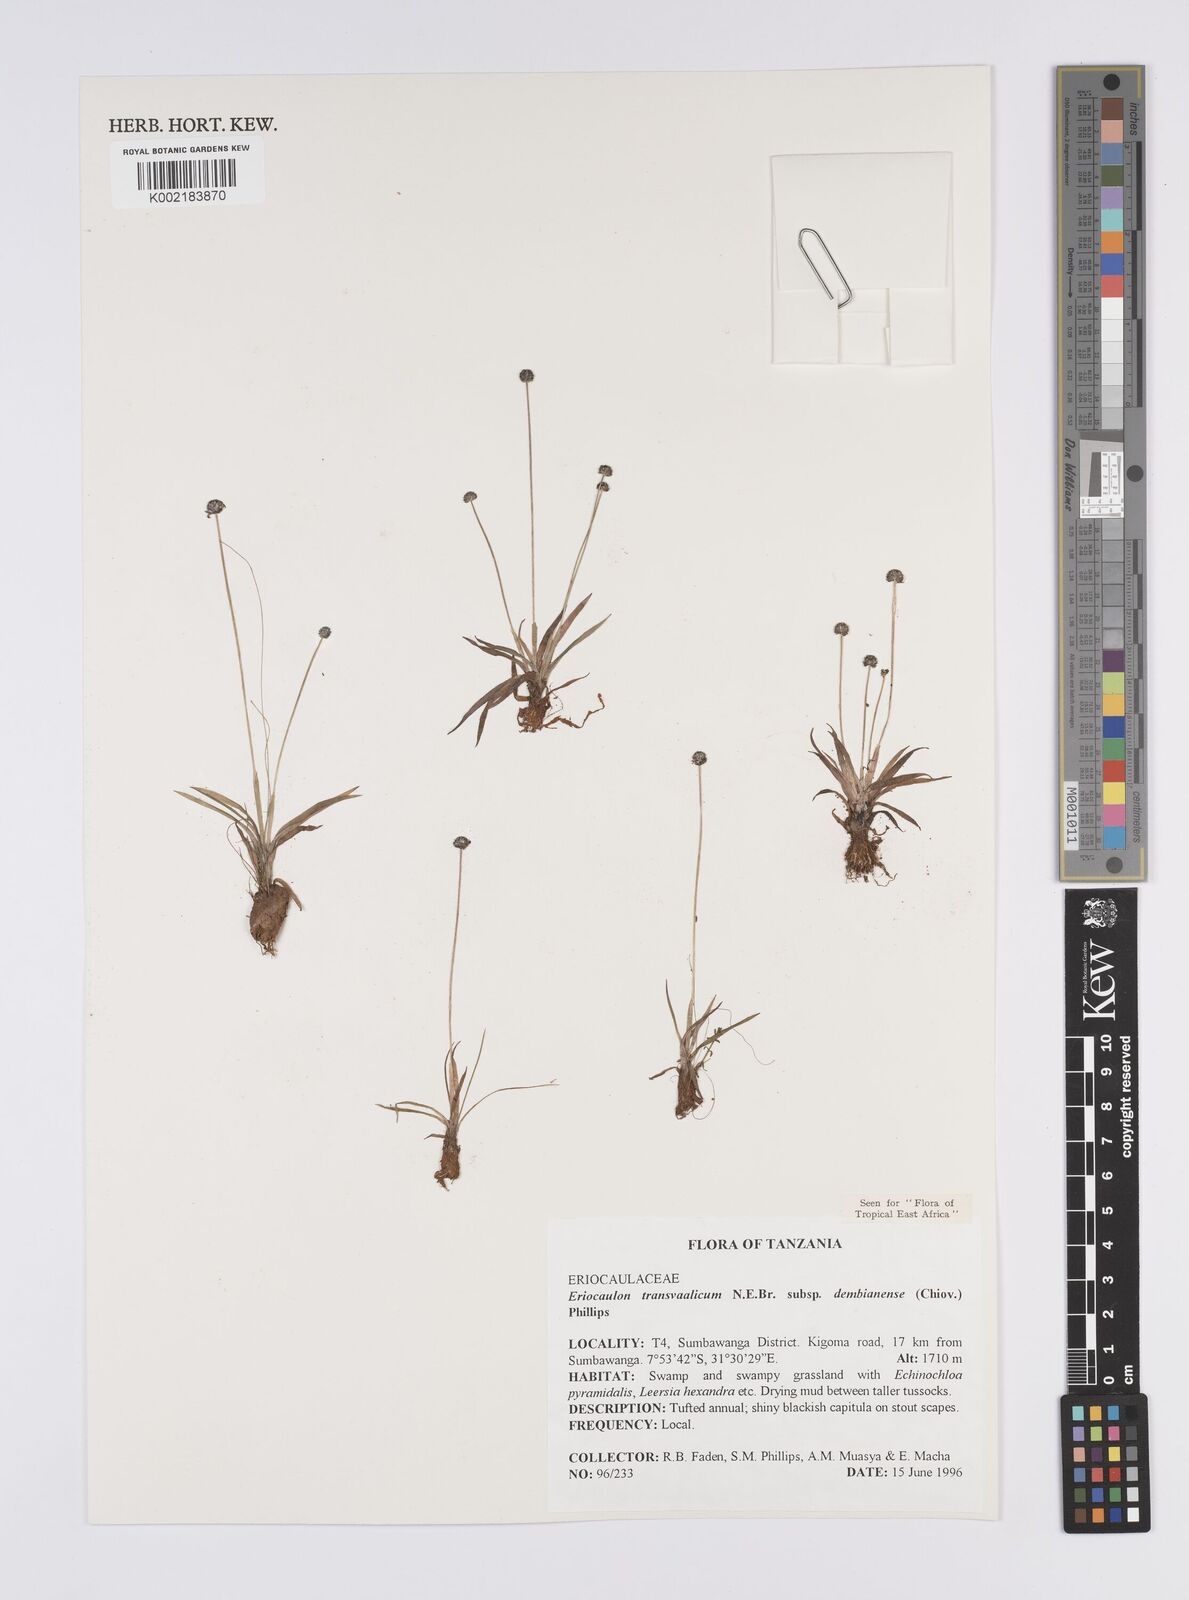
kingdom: Plantae
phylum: Tracheophyta
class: Liliopsida
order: Poales
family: Eriocaulaceae
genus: Eriocaulon
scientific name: Eriocaulon transvaalicum
